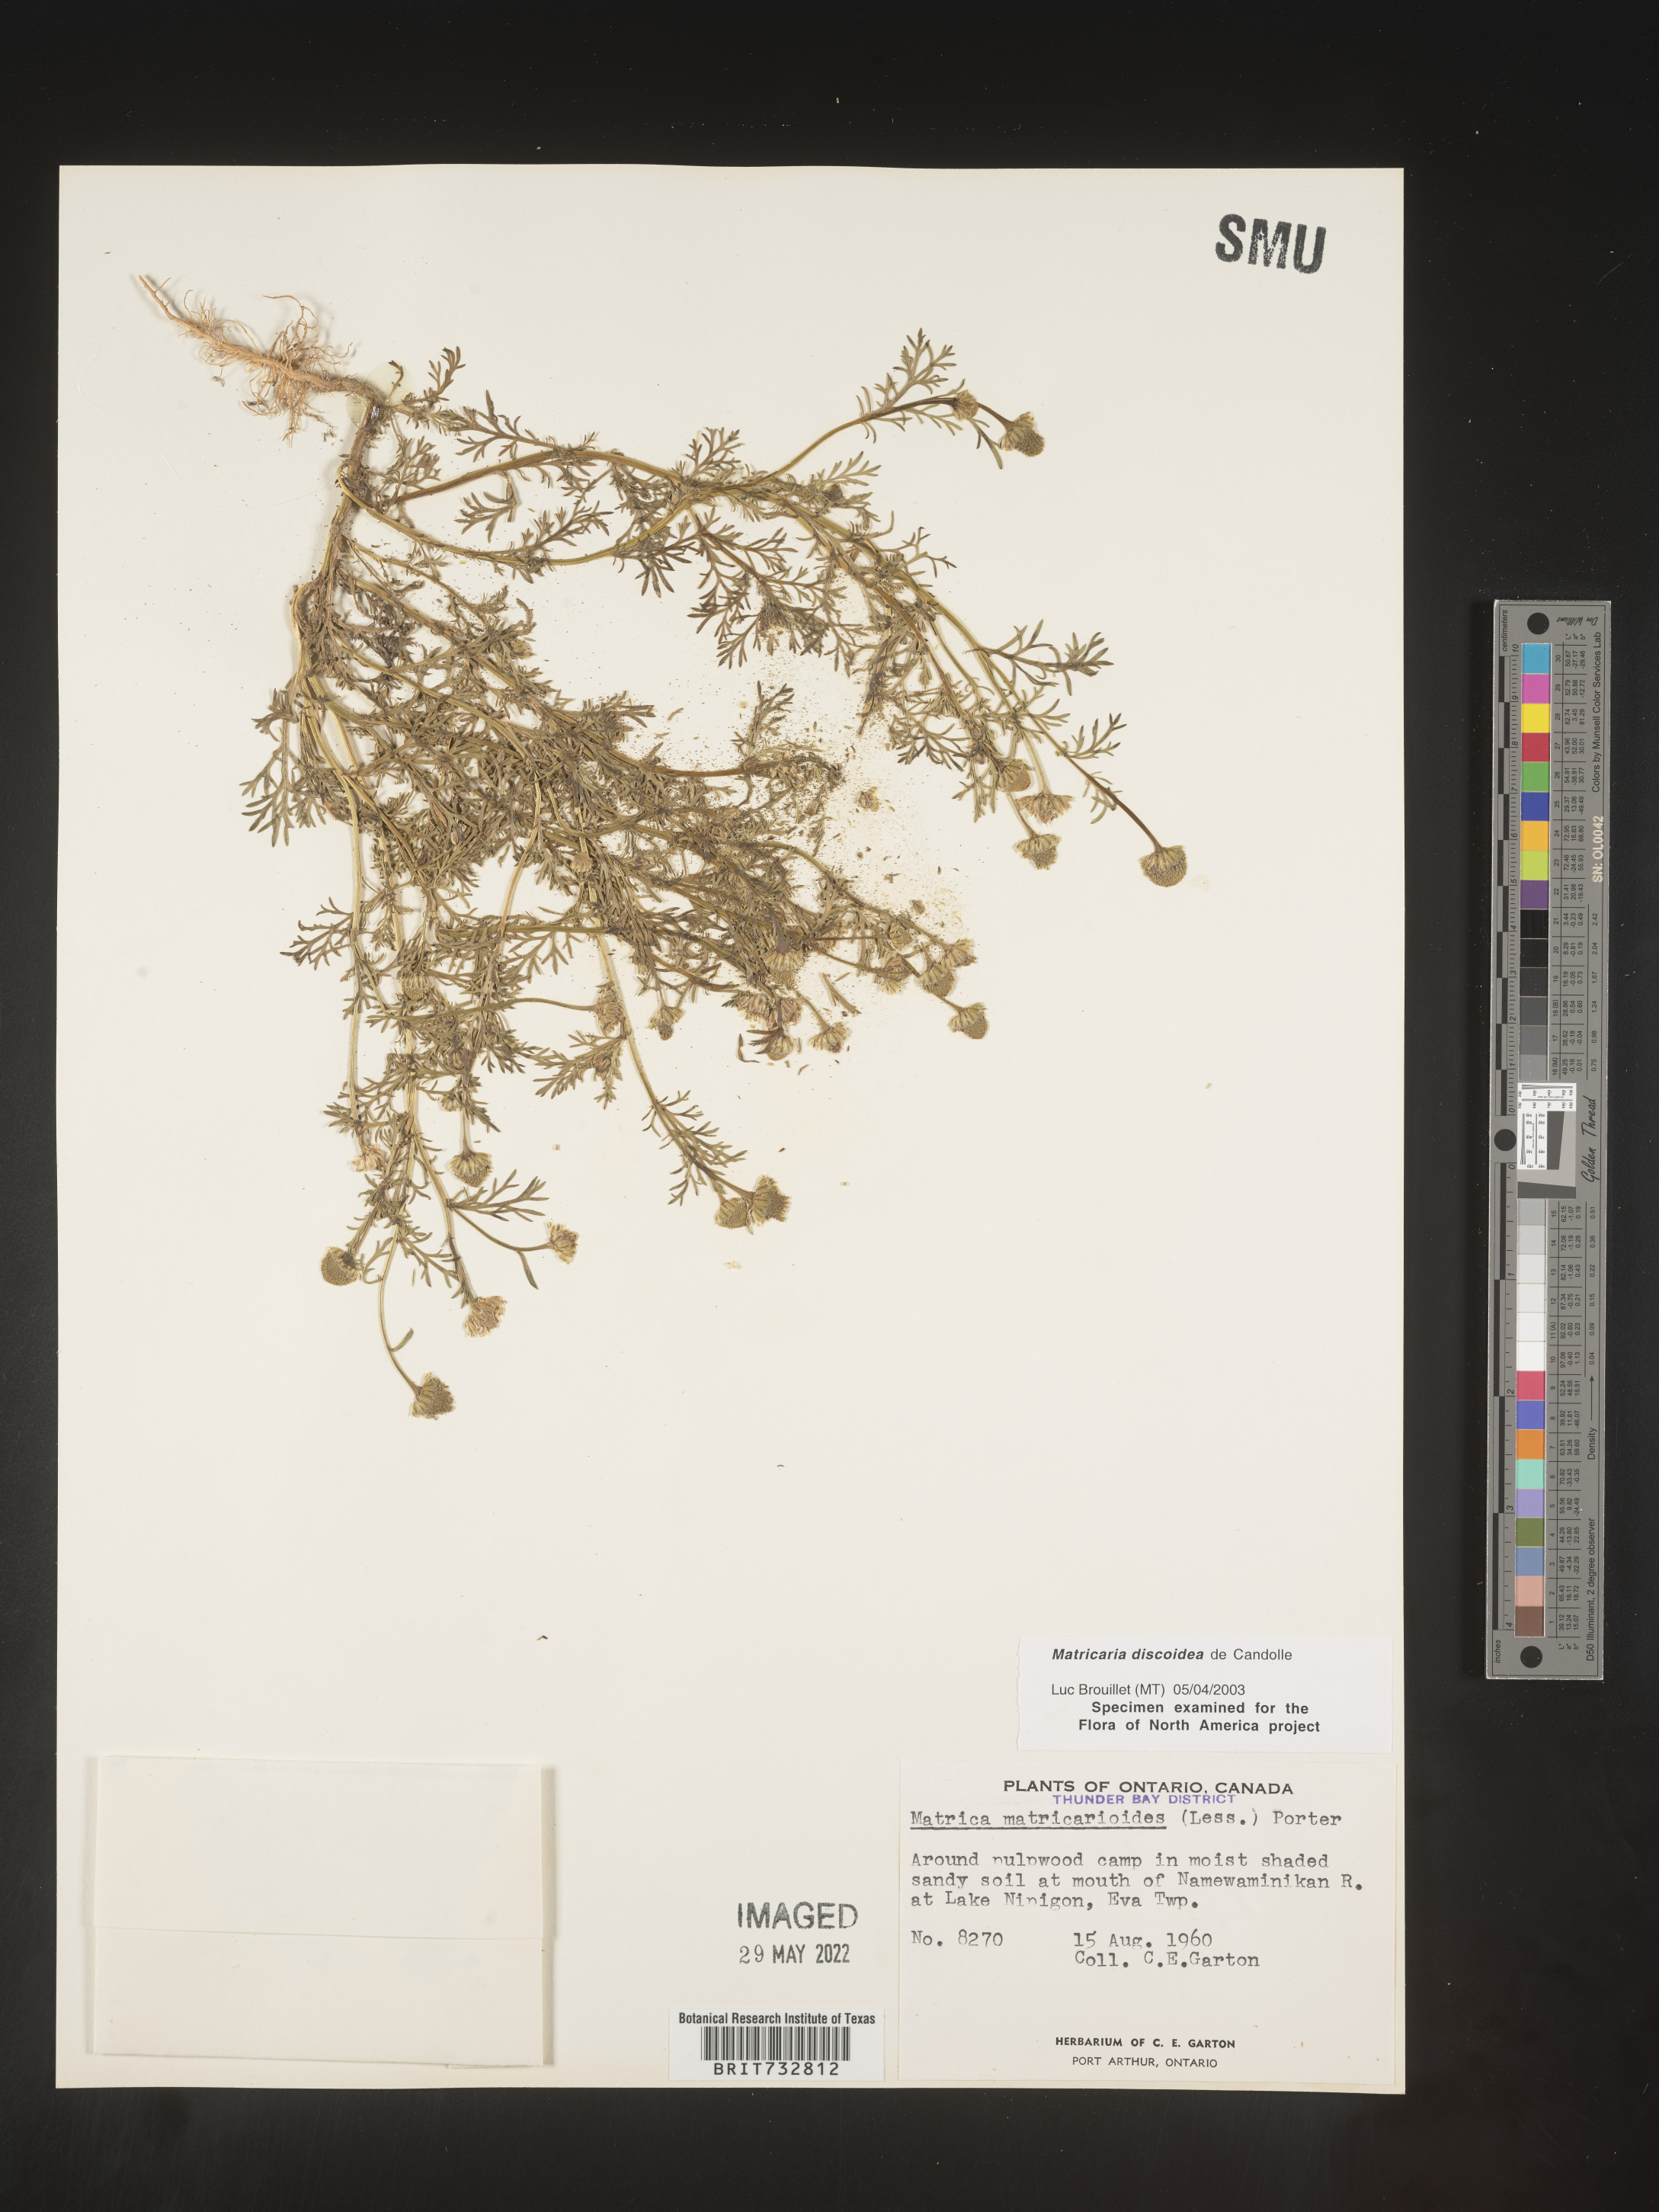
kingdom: Plantae
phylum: Tracheophyta
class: Magnoliopsida
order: Asterales
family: Asteraceae
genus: Matricaria
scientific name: Matricaria discoidea
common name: Disc mayweed
